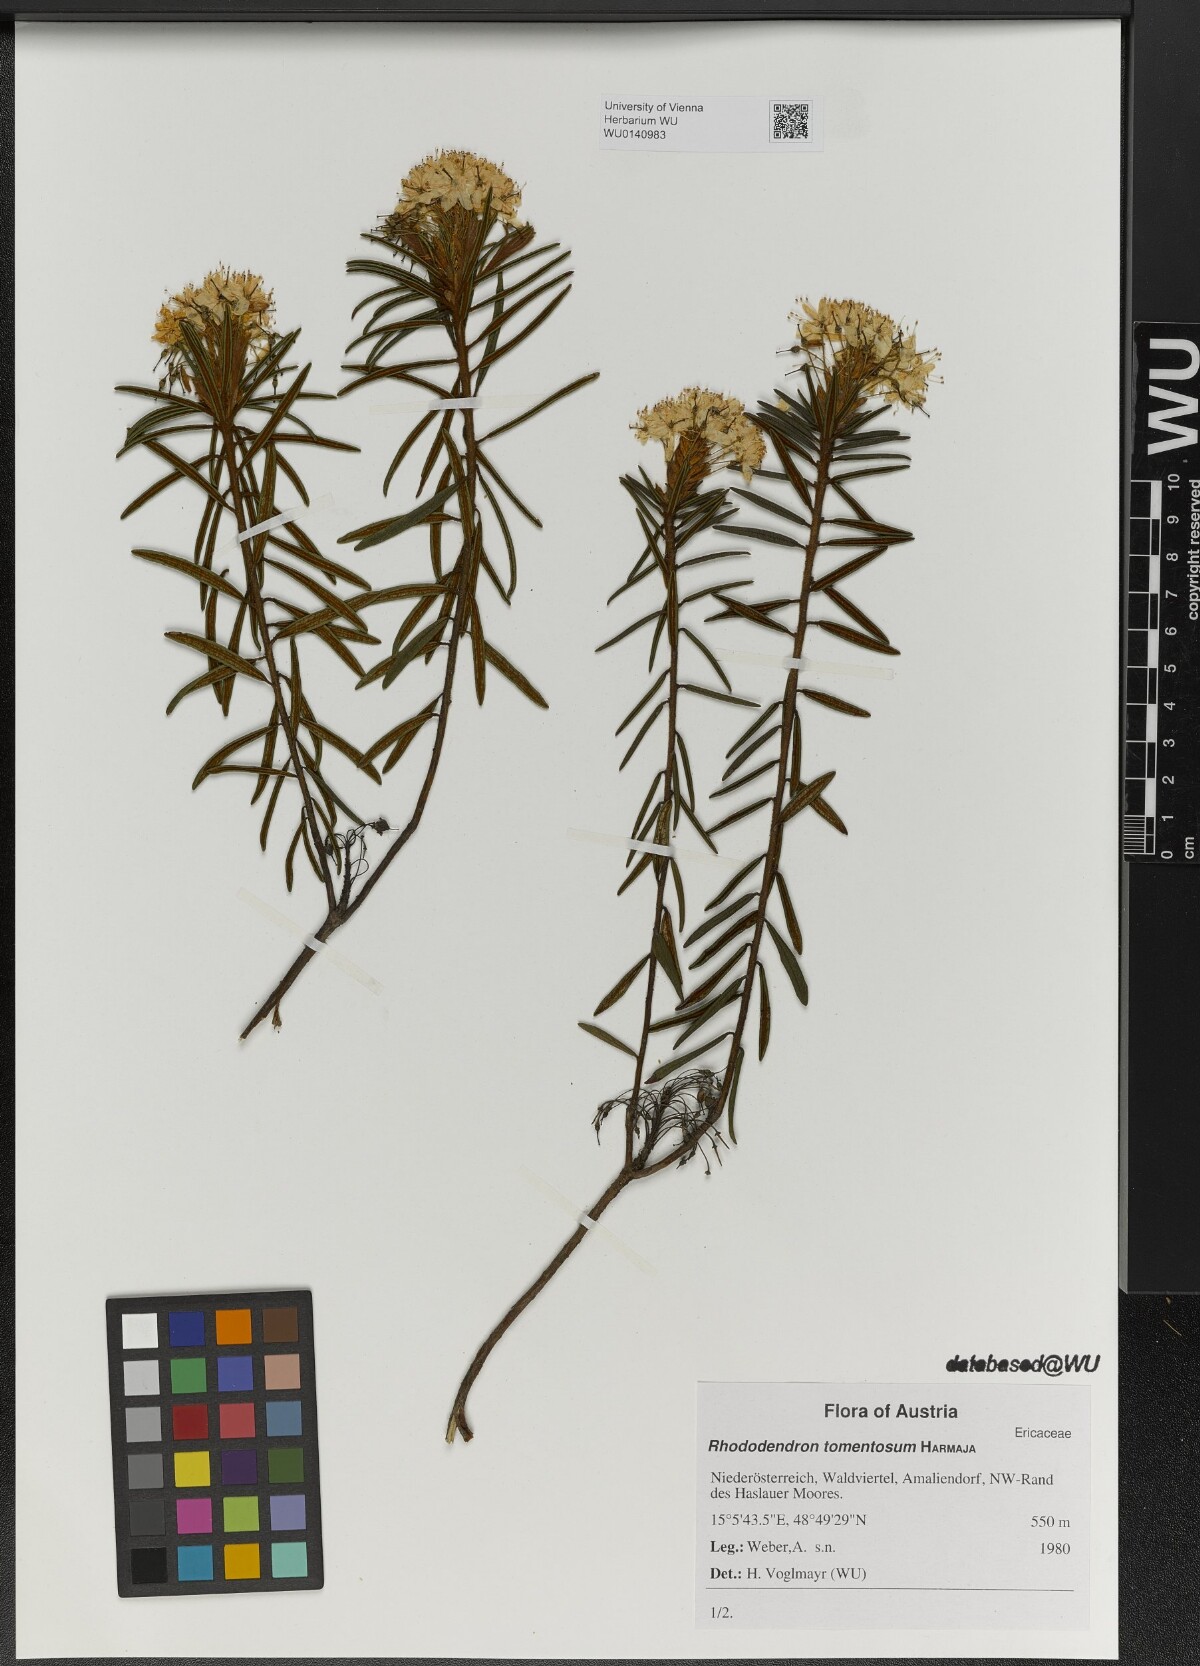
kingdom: Plantae
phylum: Tracheophyta
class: Magnoliopsida
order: Ericales
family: Ericaceae
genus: Rhododendron
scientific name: Rhododendron tomentosum
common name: Marsh labrador tea
